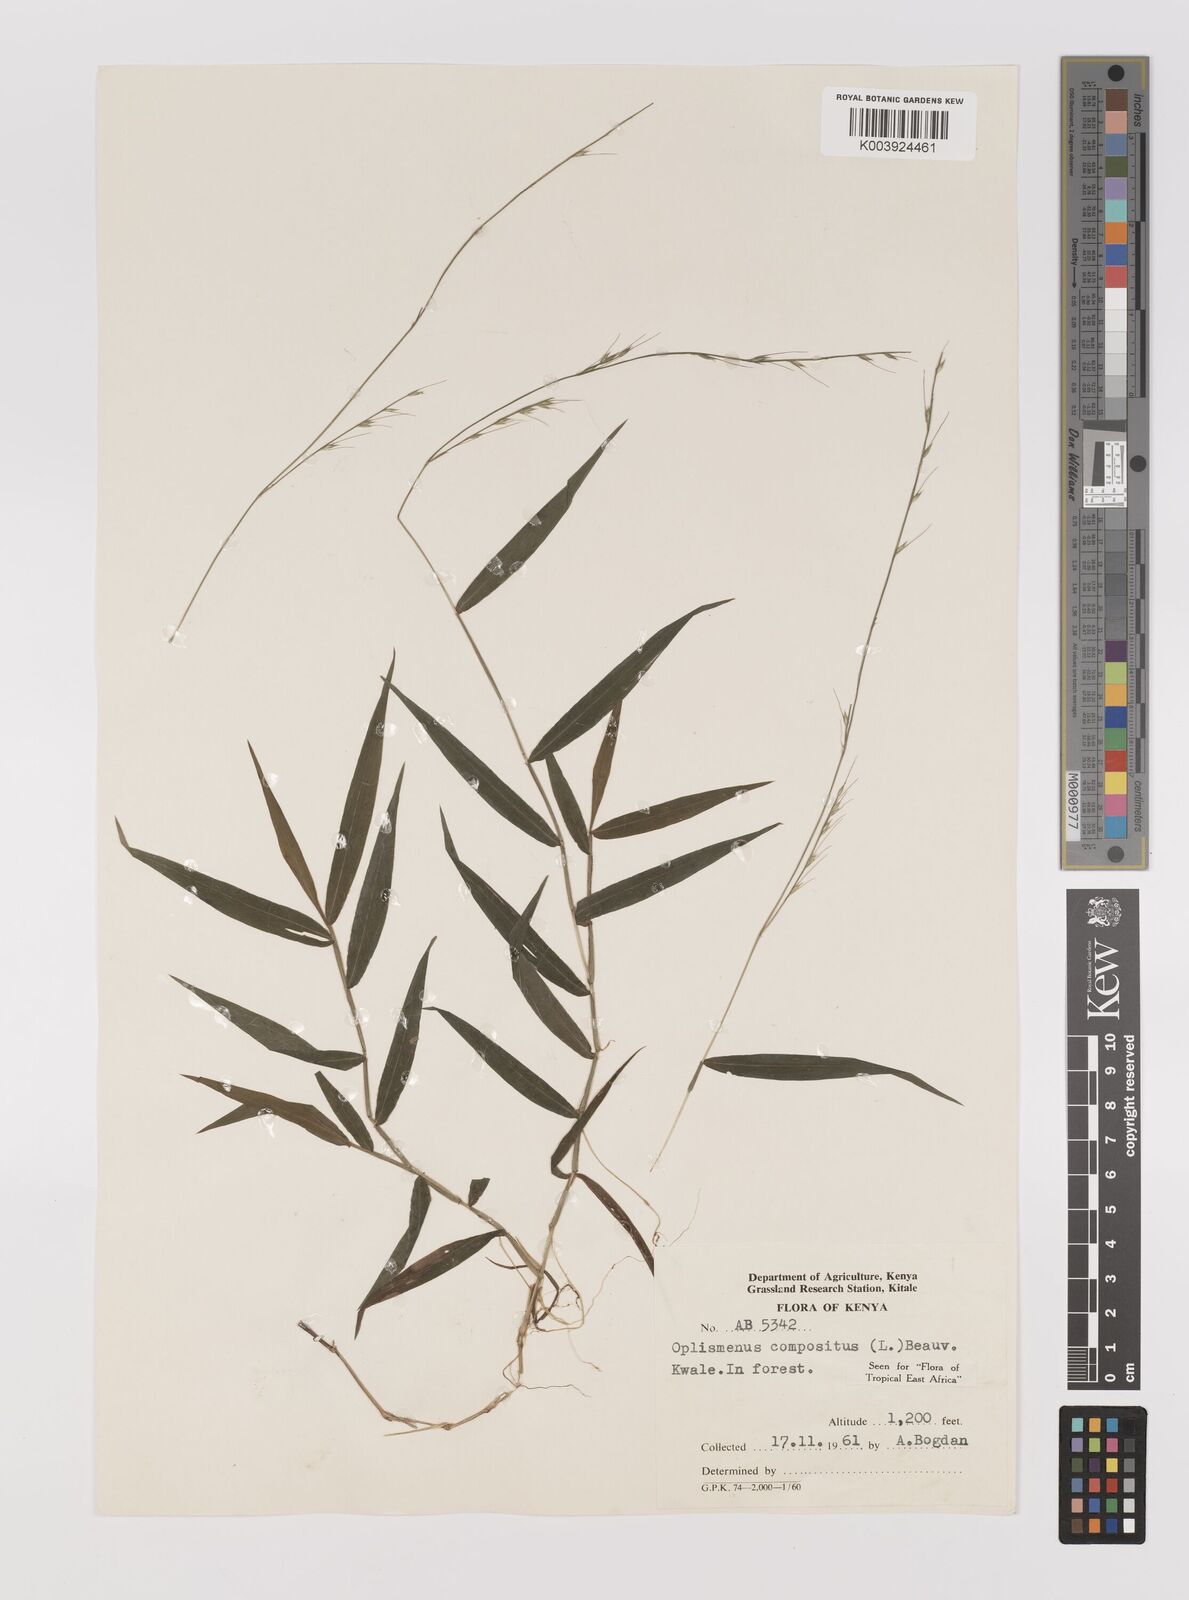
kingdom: Plantae
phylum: Tracheophyta
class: Liliopsida
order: Poales
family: Poaceae
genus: Oplismenus
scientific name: Oplismenus compositus
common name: Running mountain grass
